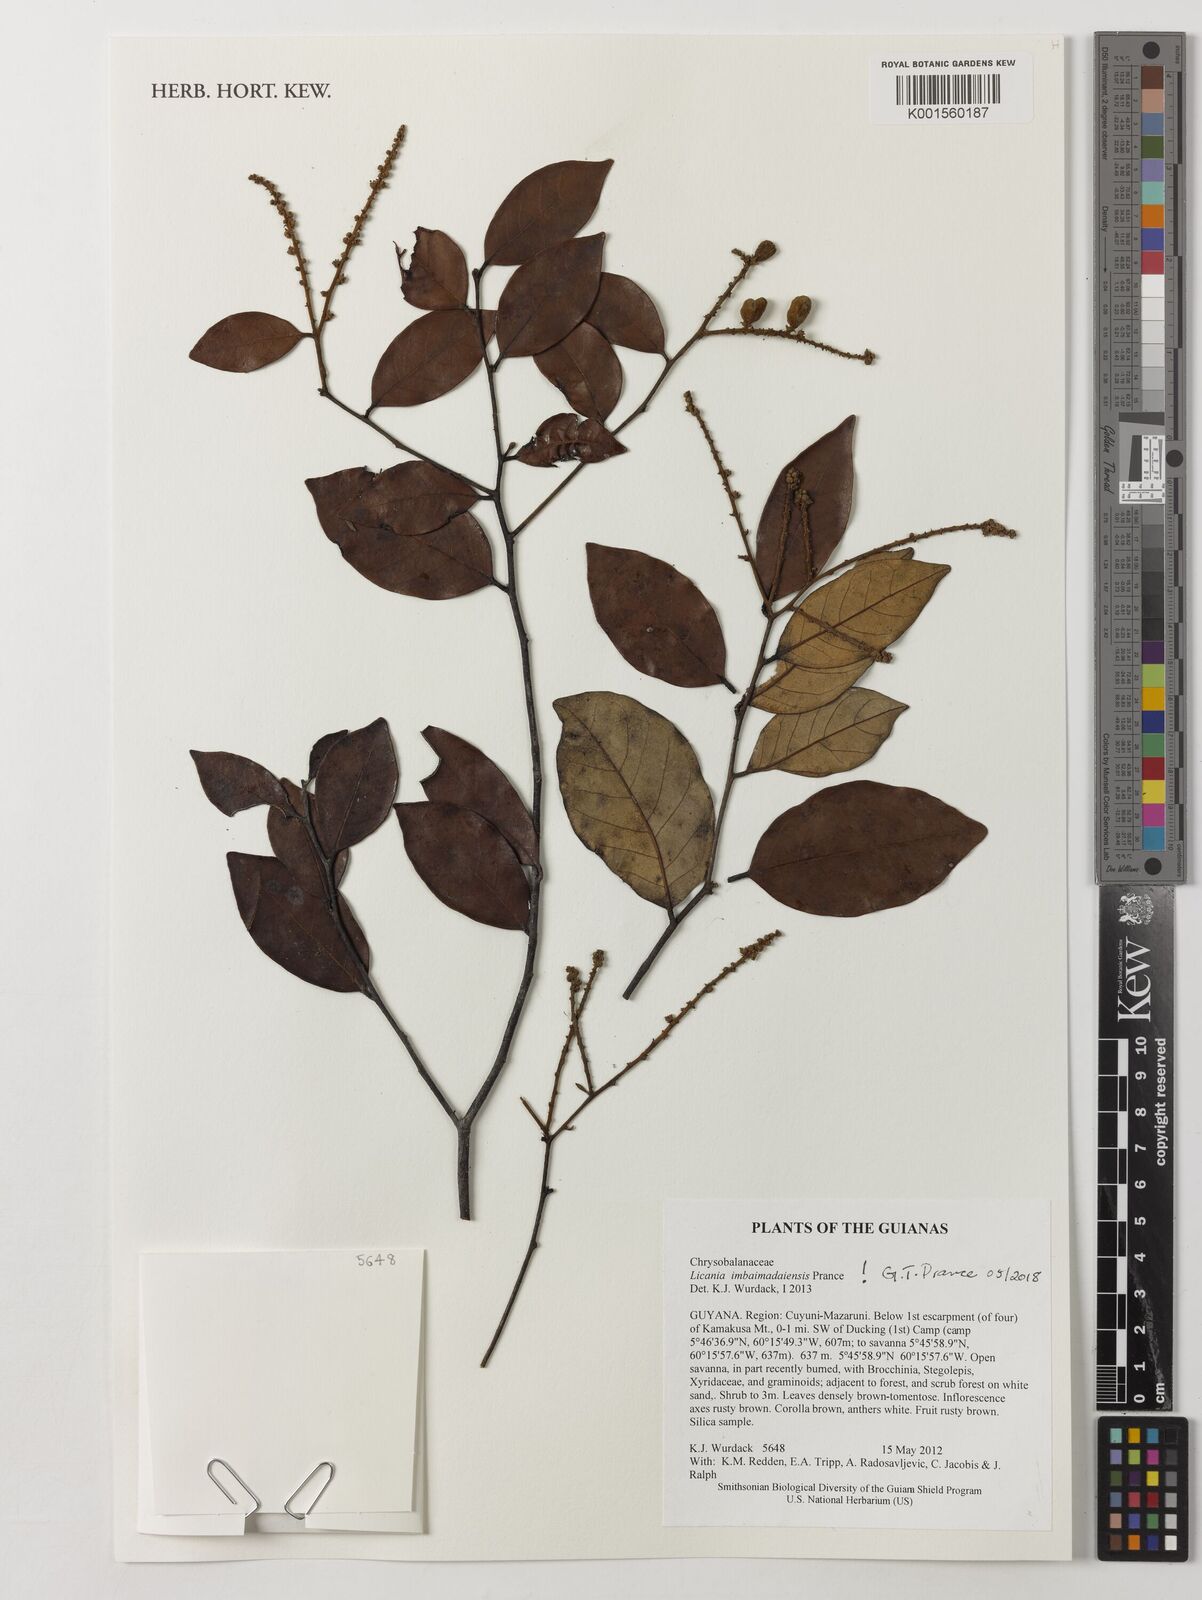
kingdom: Plantae
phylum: Tracheophyta
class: Magnoliopsida
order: Malpighiales
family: Chrysobalanaceae
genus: Moquilea
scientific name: Moquilea imbaimadaiensis
